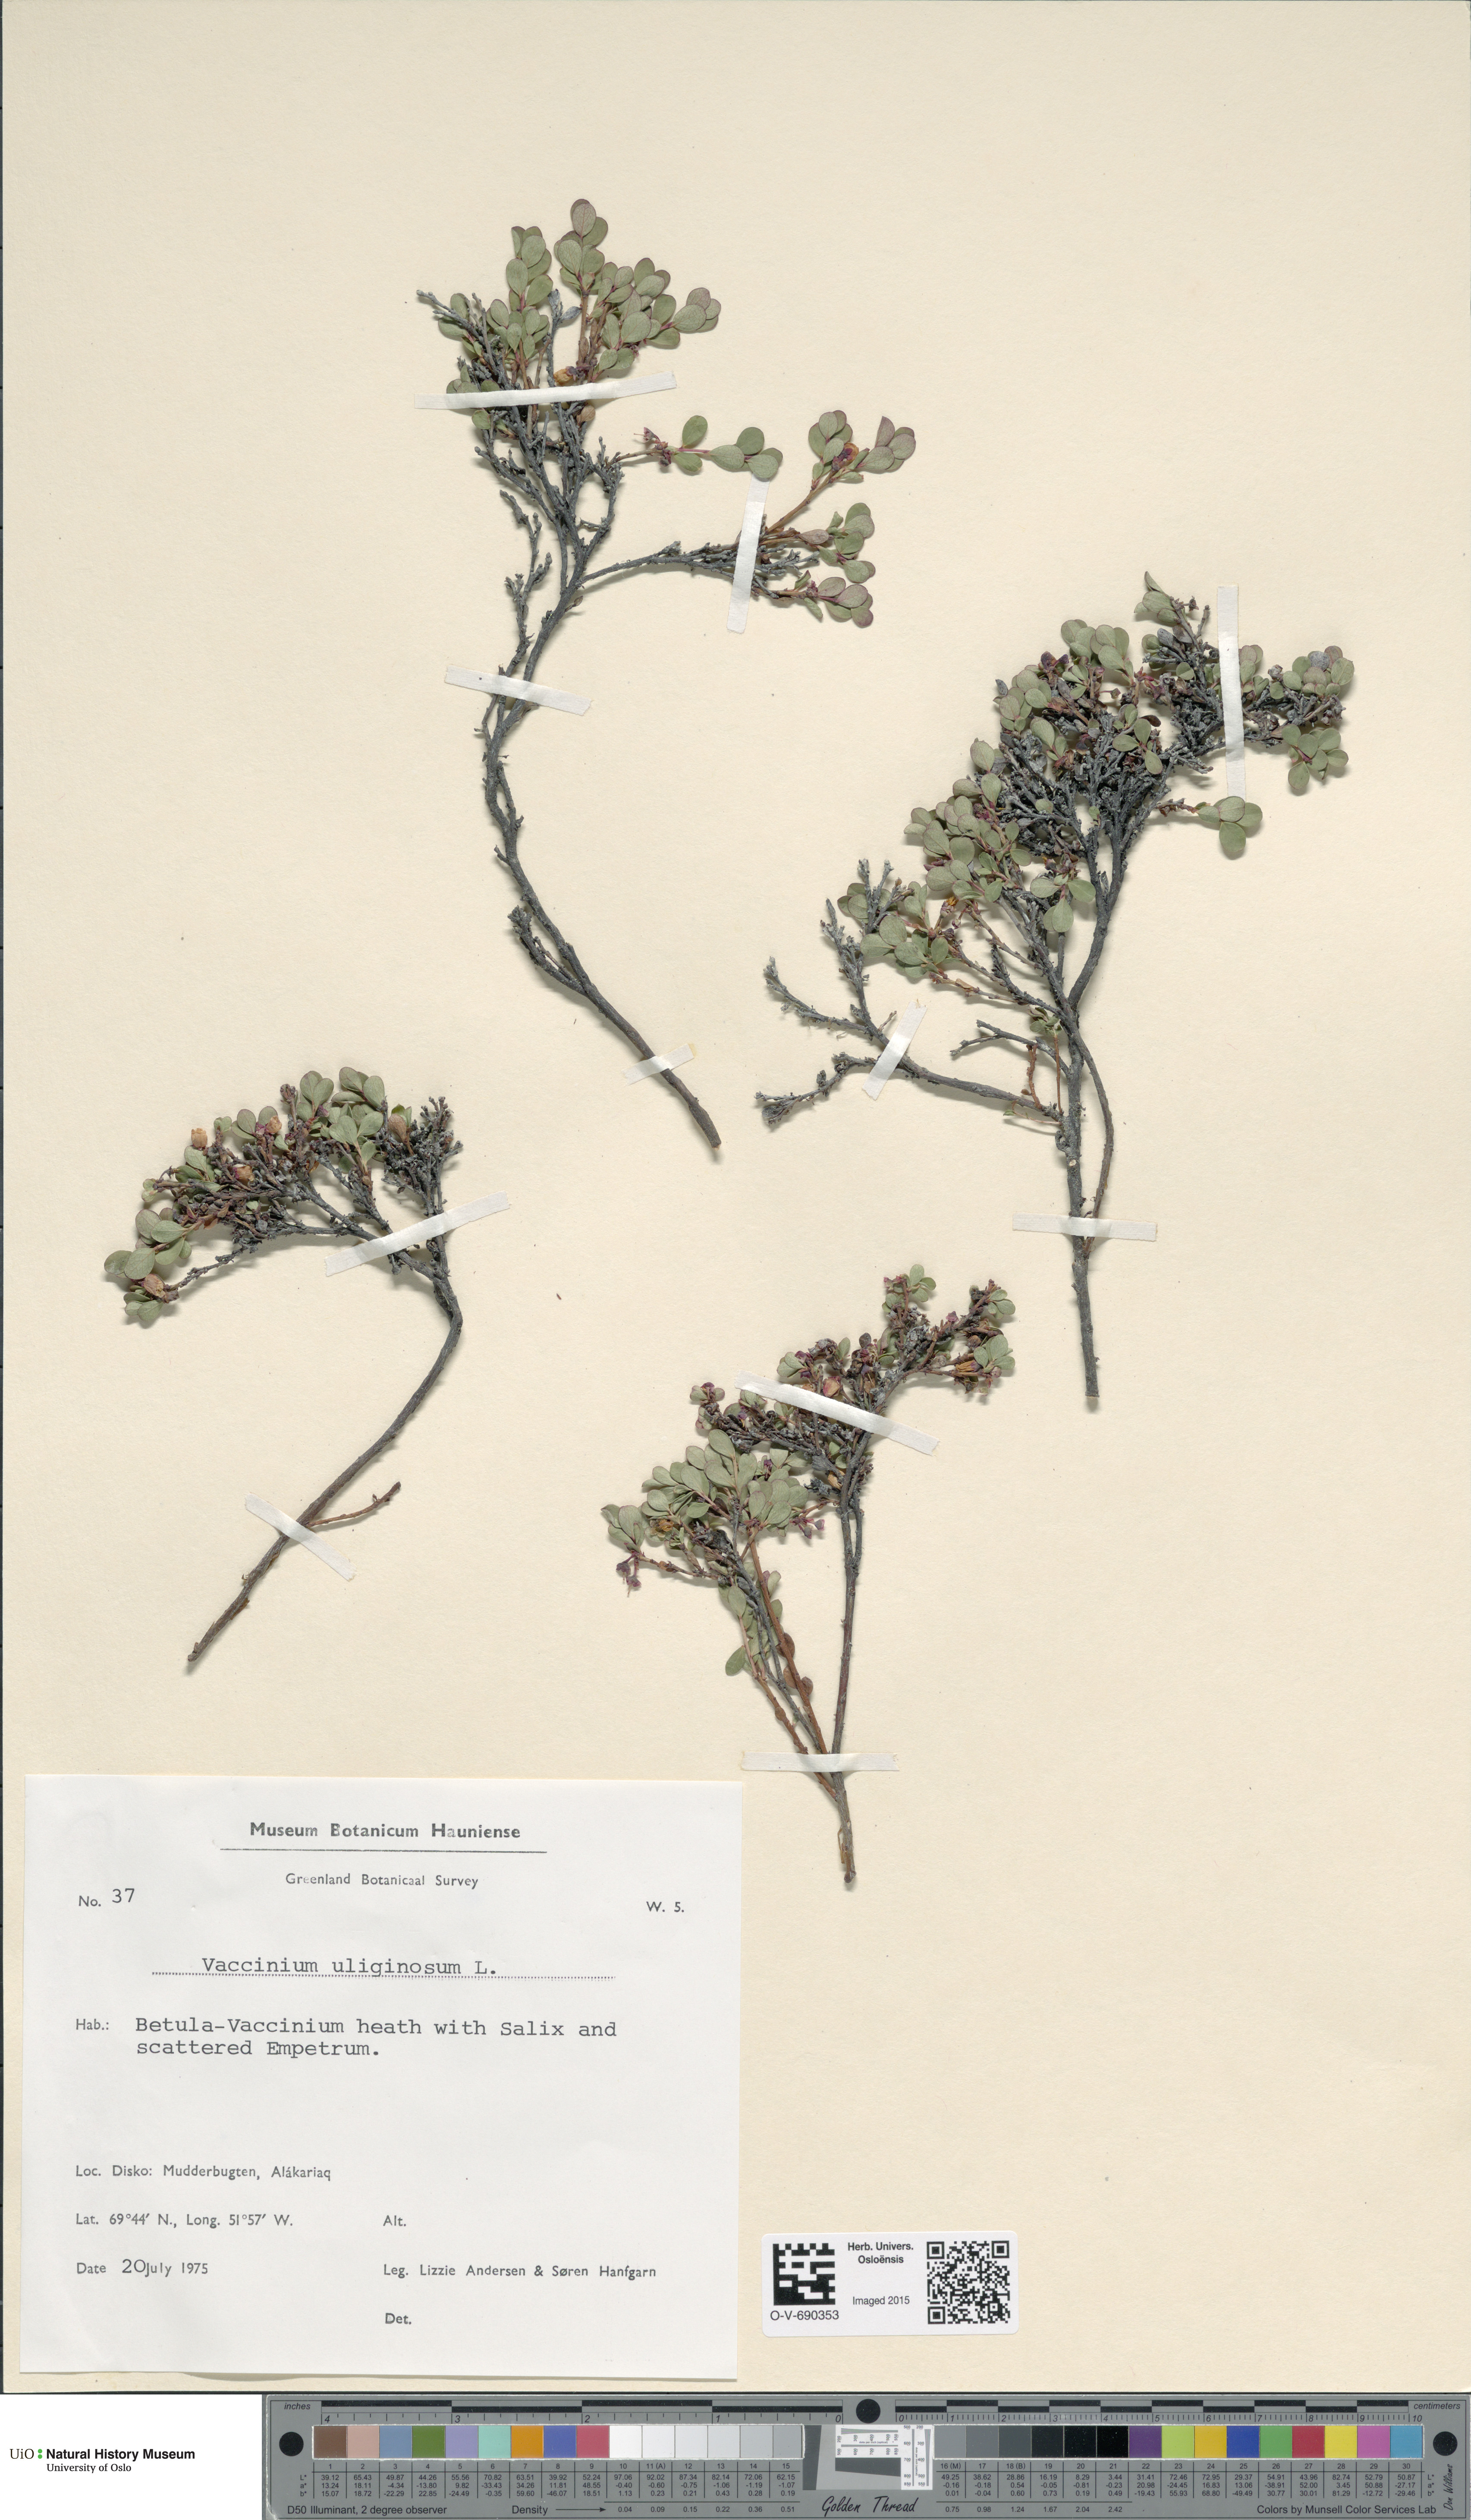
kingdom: Plantae
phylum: Tracheophyta
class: Magnoliopsida
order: Ericales
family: Ericaceae
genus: Vaccinium
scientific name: Vaccinium uliginosum
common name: Bog bilberry
